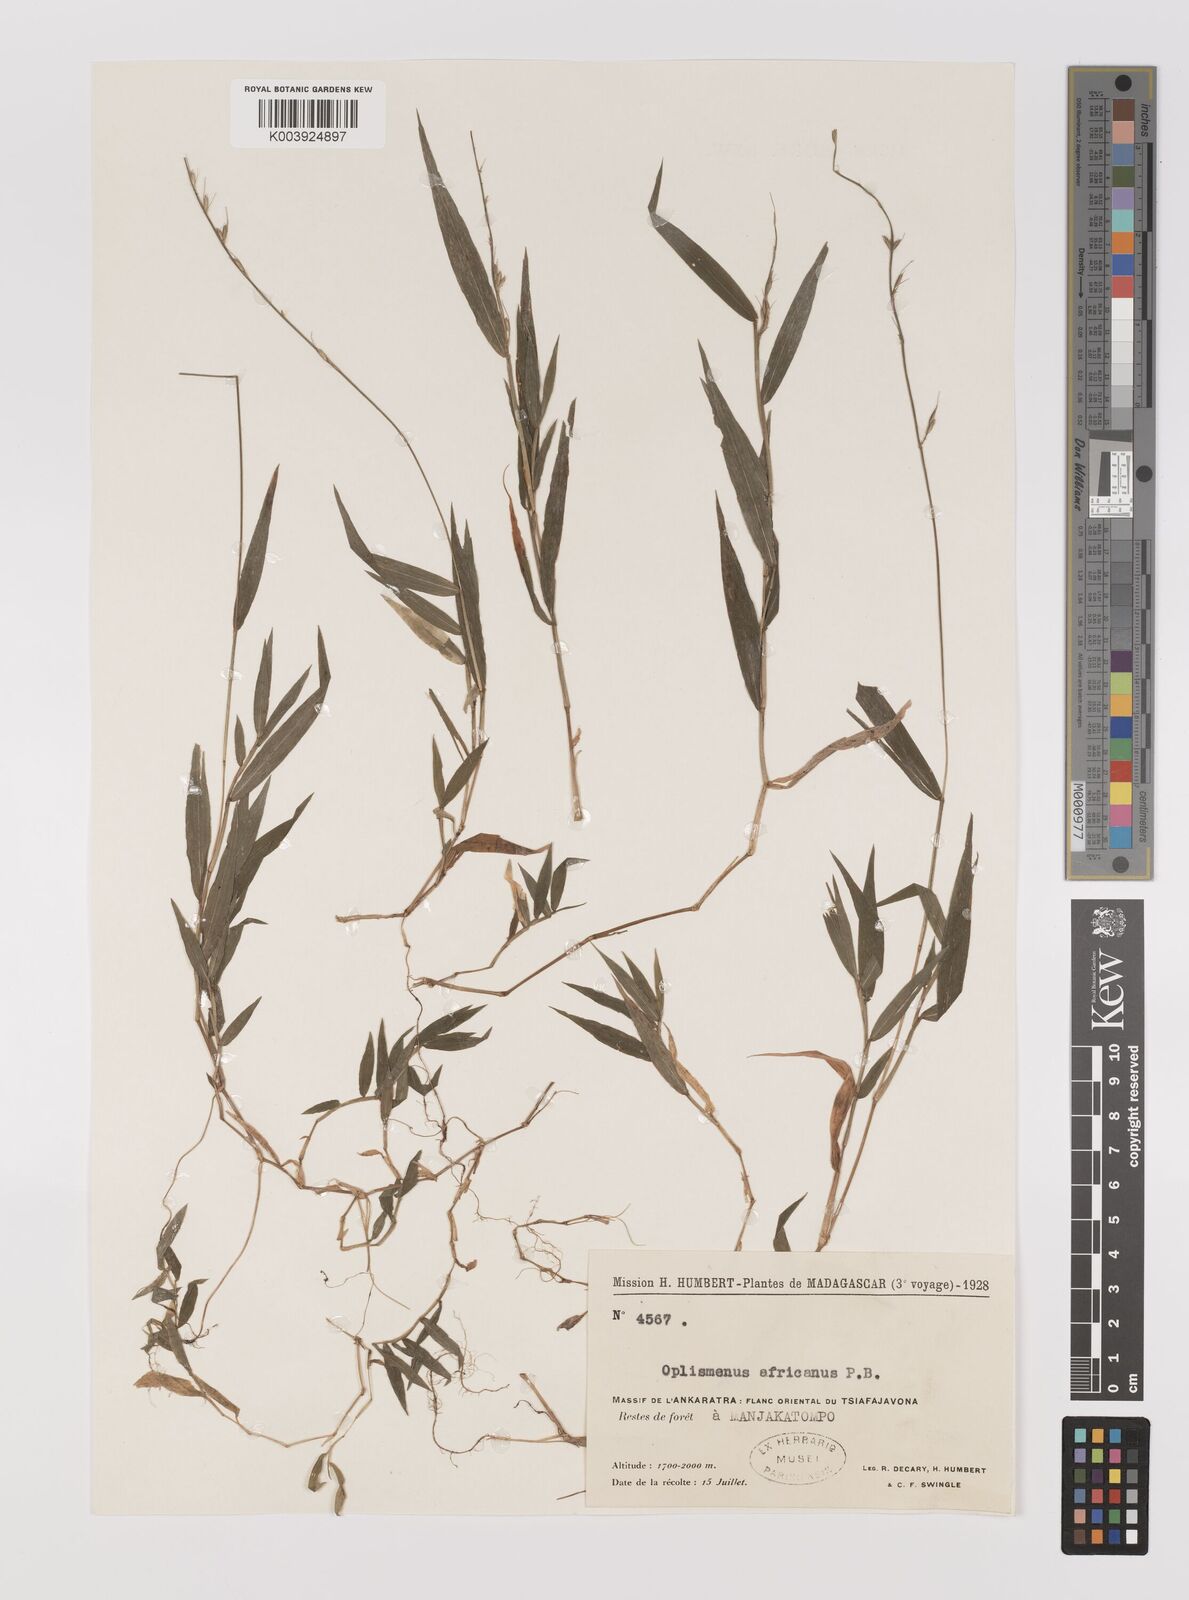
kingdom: Plantae
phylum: Tracheophyta
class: Liliopsida
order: Poales
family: Poaceae
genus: Oplismenus
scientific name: Oplismenus hirtellus
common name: Basketgrass
